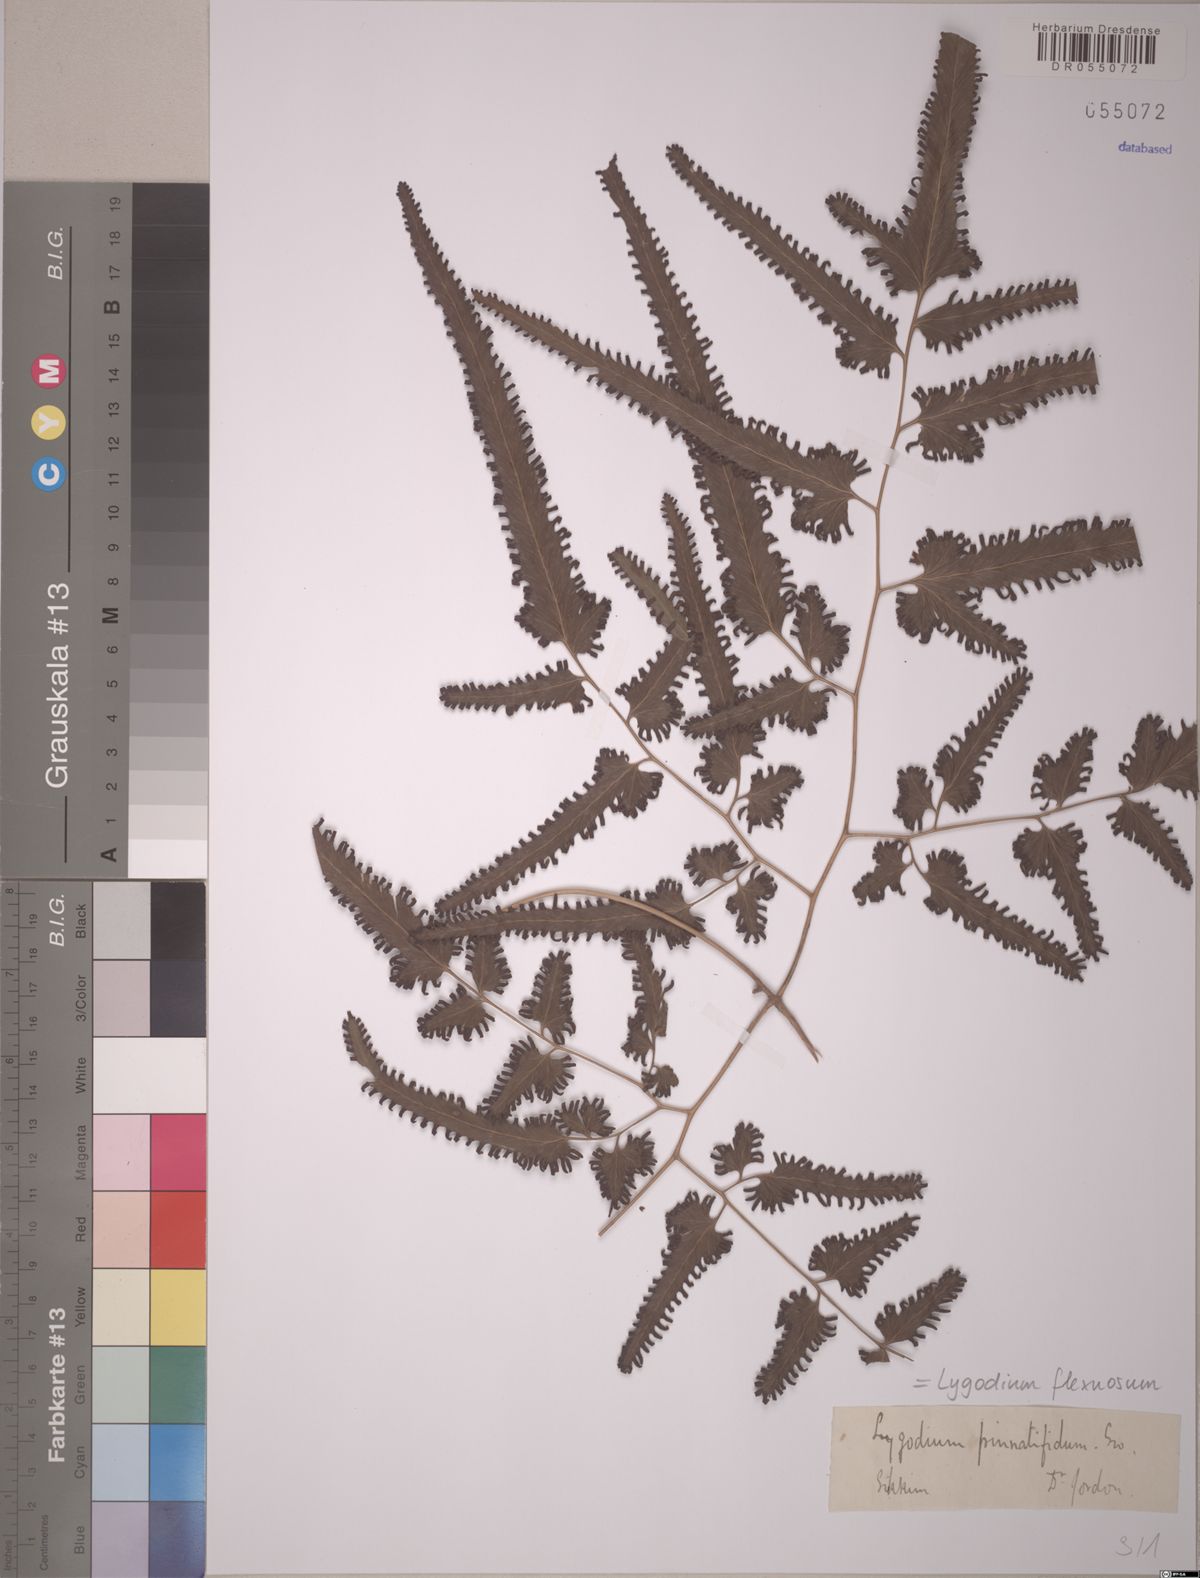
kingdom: Plantae
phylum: Tracheophyta
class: Polypodiopsida
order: Schizaeales
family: Lygodiaceae
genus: Lygodium
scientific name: Lygodium flexuosum
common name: Maidenhair creeper
